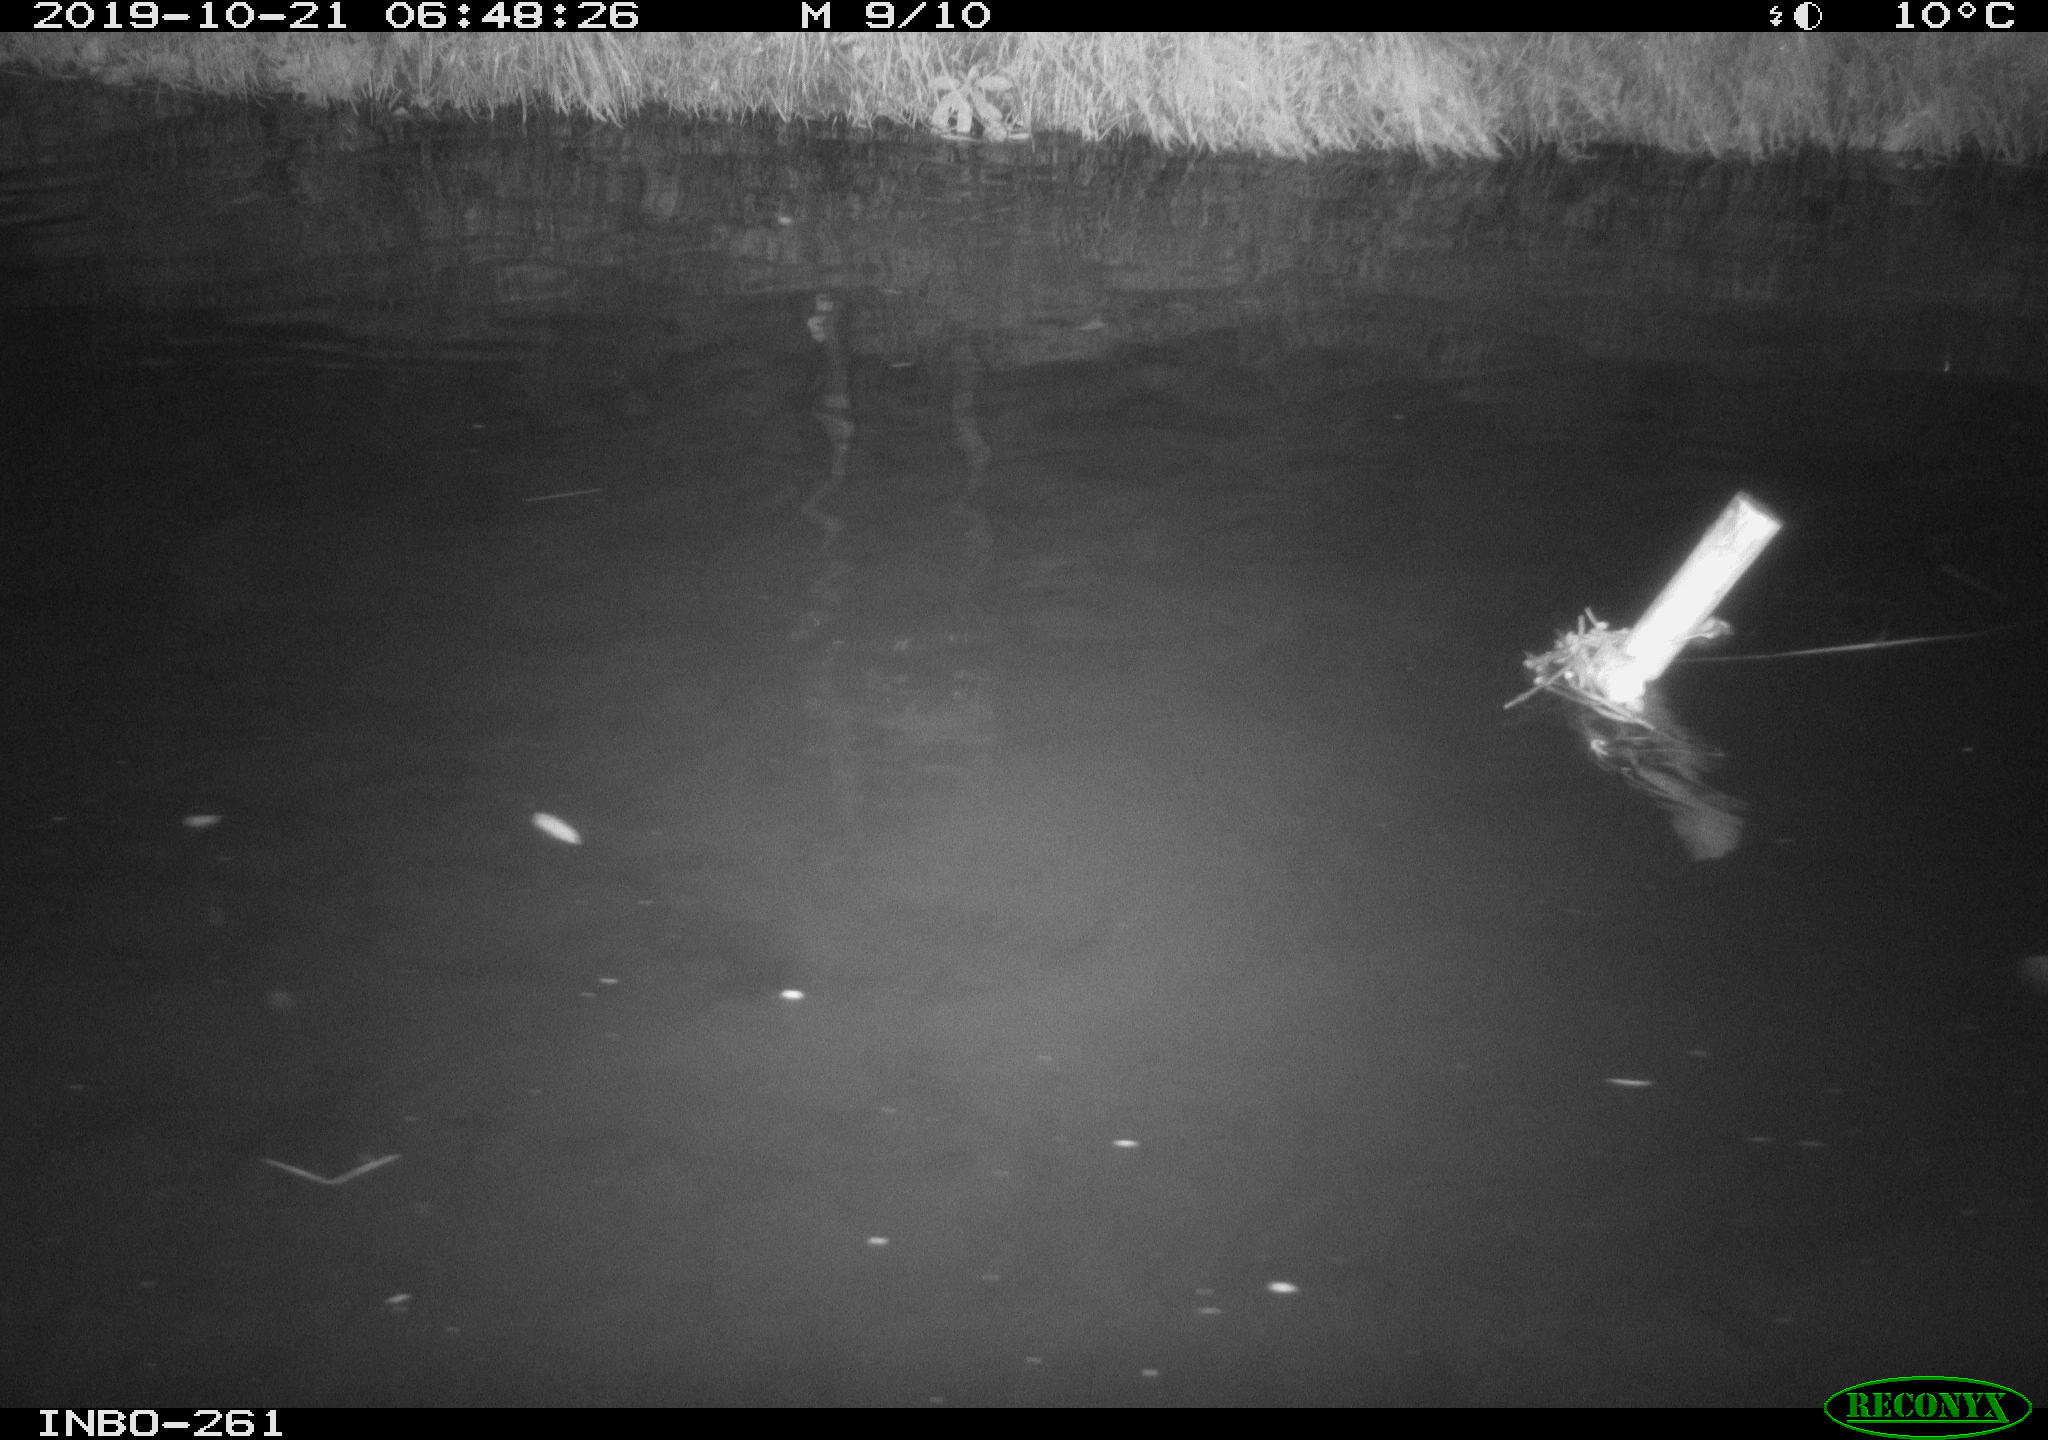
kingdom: Animalia
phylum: Chordata
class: Aves
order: Anseriformes
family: Anatidae
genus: Anas
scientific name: Anas platyrhynchos
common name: Mallard
